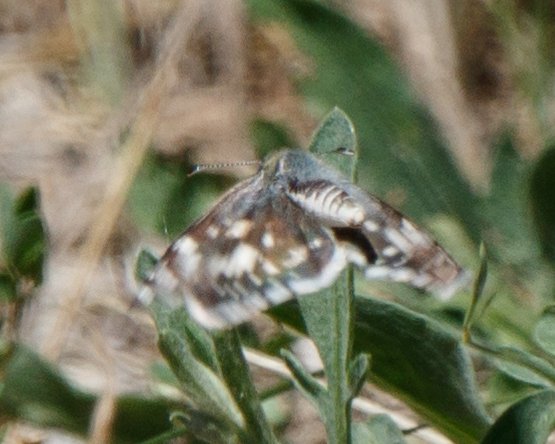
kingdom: Animalia
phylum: Arthropoda
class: Insecta
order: Lepidoptera
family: Hesperiidae
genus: Pyrgus
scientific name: Pyrgus communis
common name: Common Checkered-Skipper
